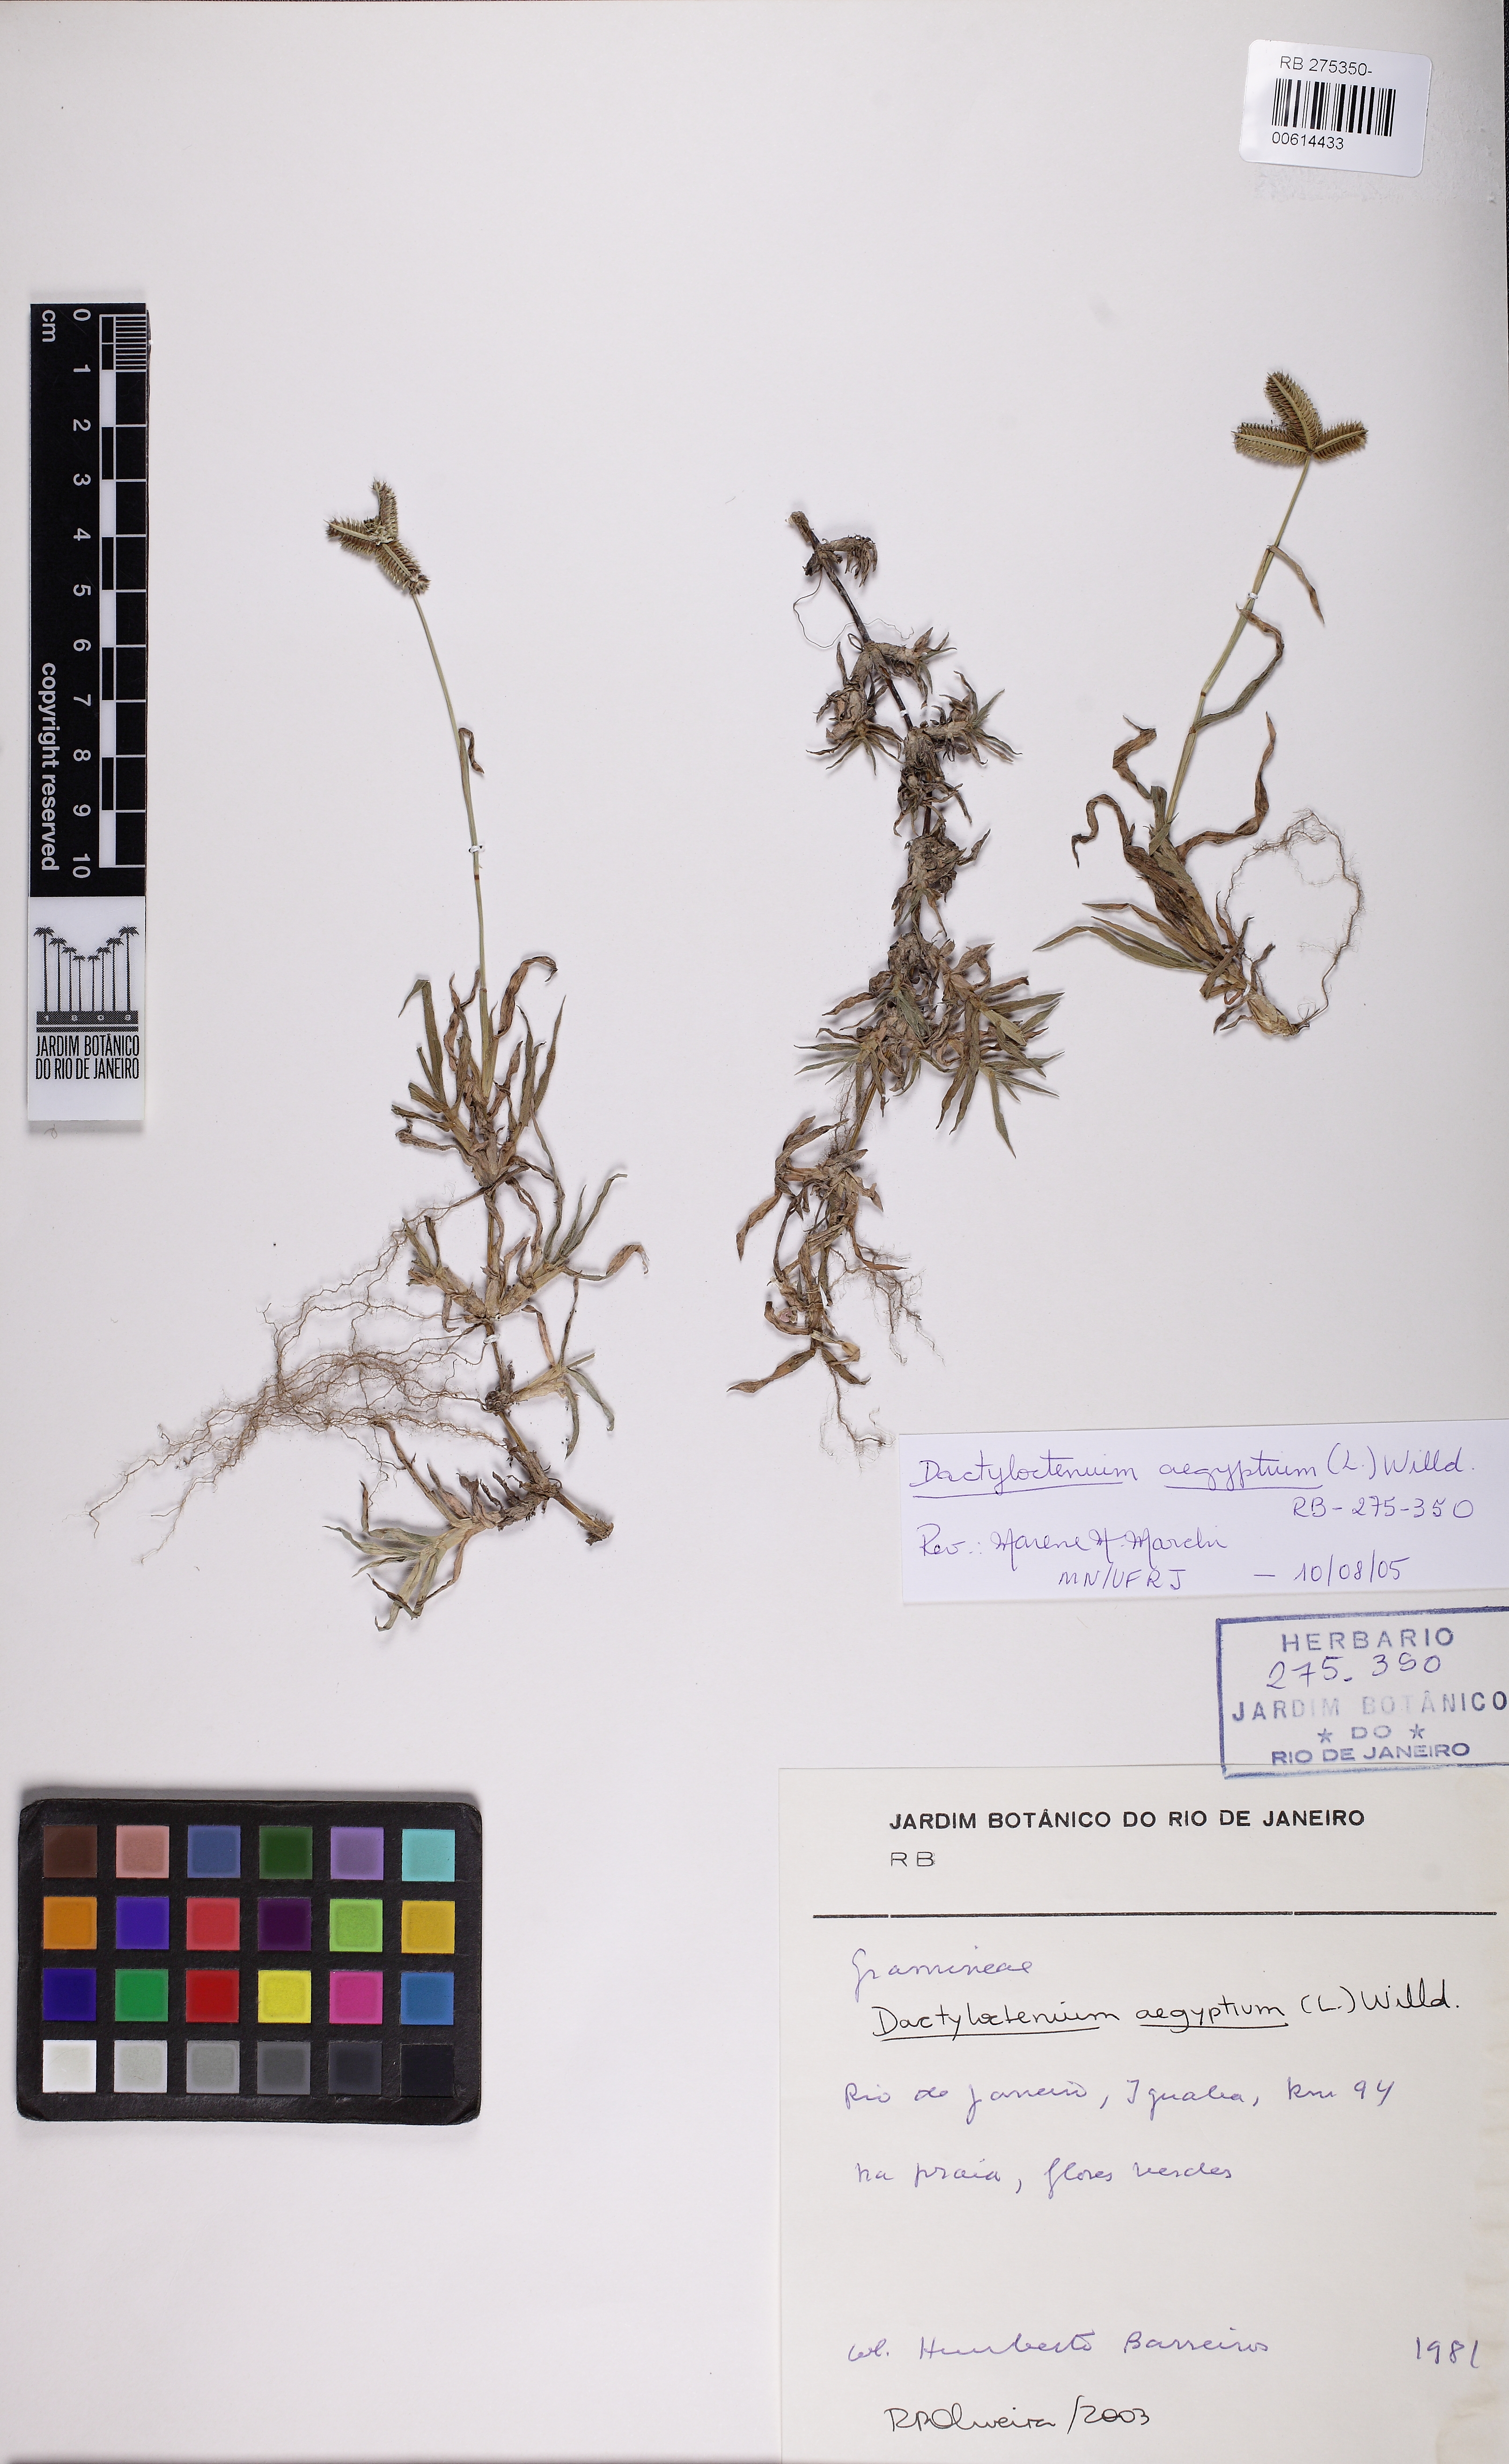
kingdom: Plantae
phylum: Tracheophyta
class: Liliopsida
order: Poales
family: Poaceae
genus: Dactyloctenium
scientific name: Dactyloctenium aegyptium
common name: Egyptian grass
